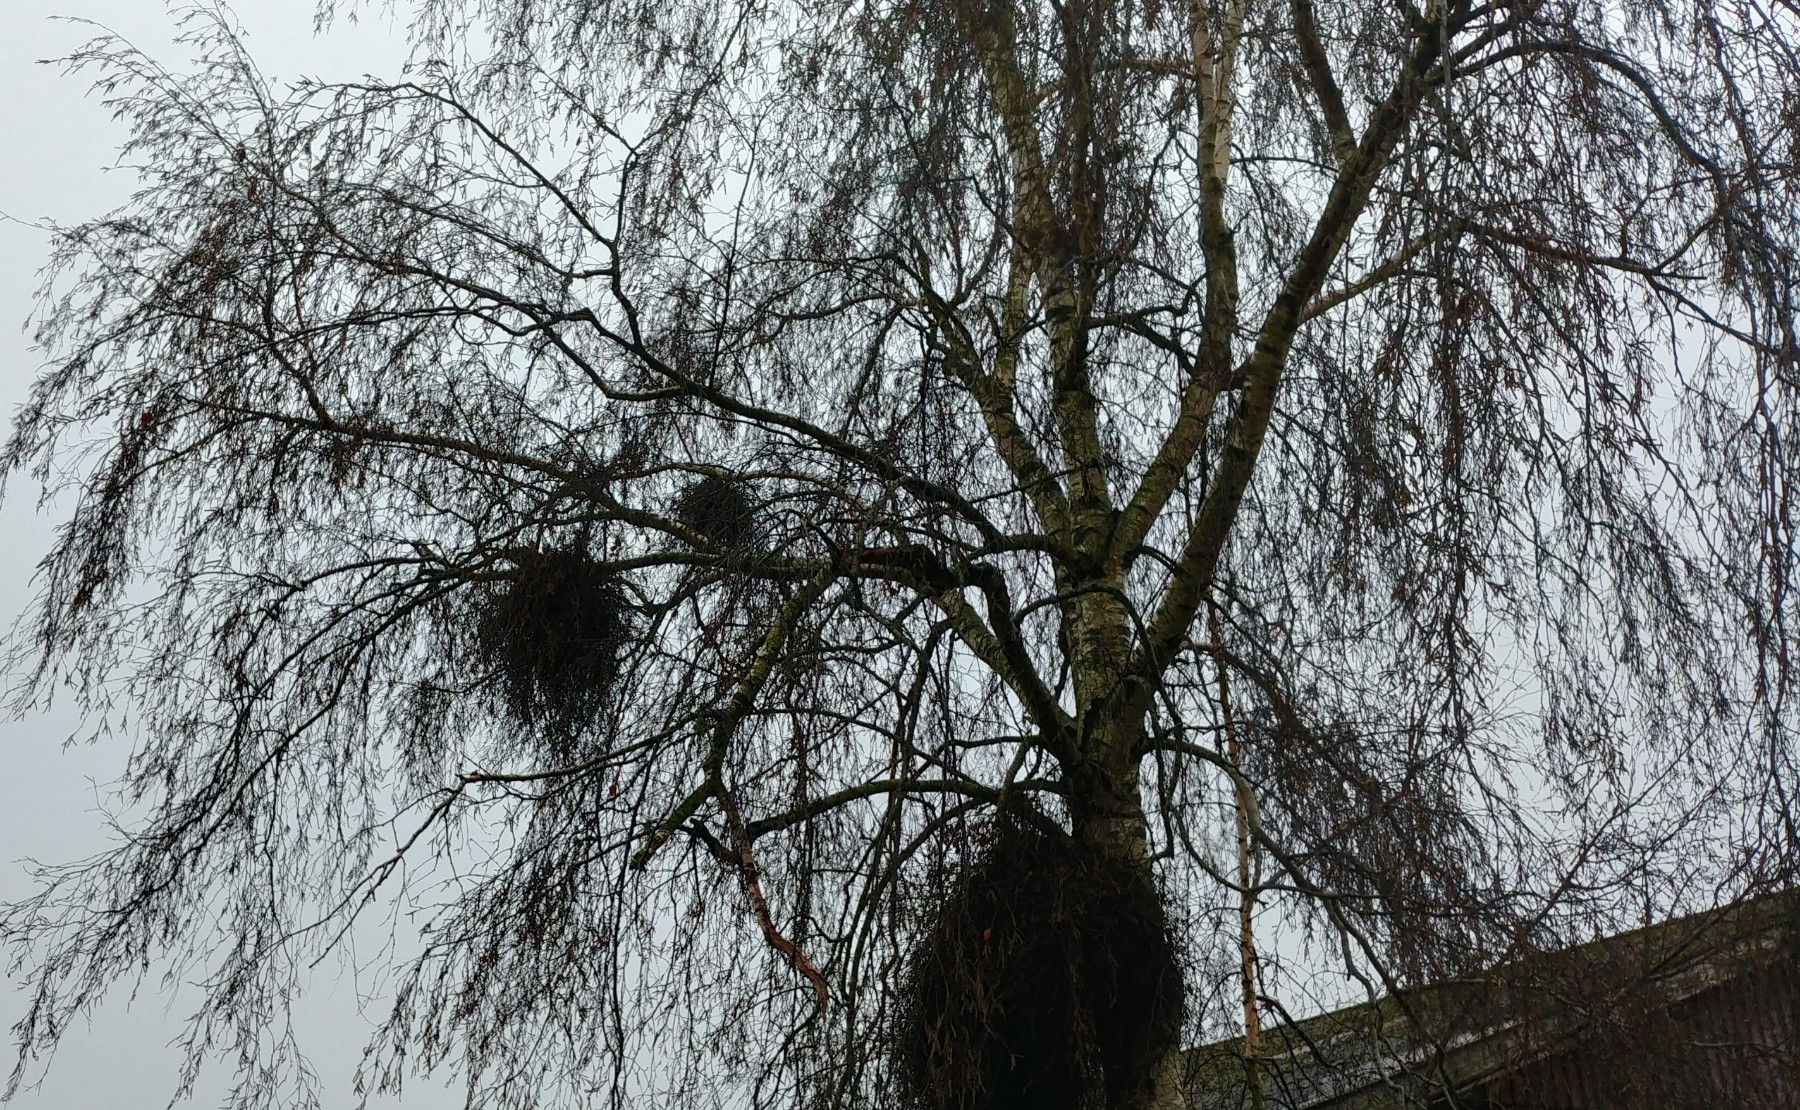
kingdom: Fungi
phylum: Ascomycota
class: Taphrinomycetes
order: Taphrinales
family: Taphrinaceae
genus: Taphrina
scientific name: Taphrina betulina
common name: hekse-sækdug
